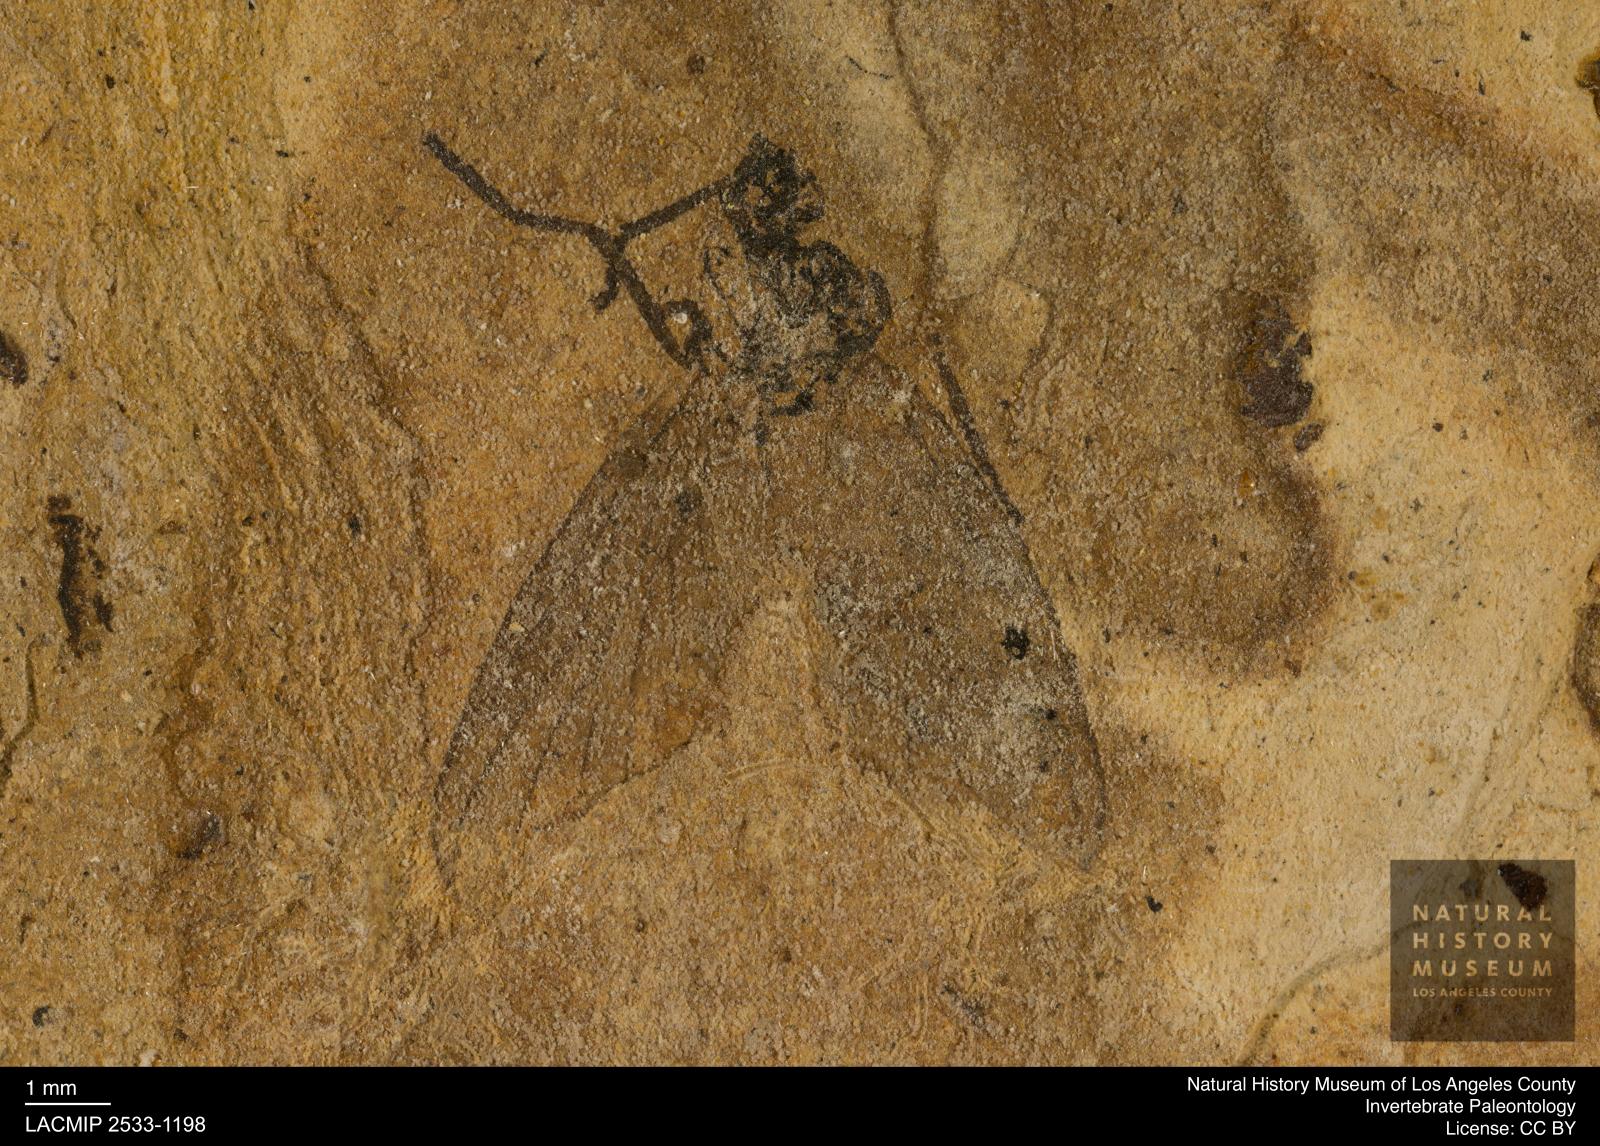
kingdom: Animalia
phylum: Arthropoda
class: Insecta
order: Diptera
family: Bibionidae
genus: Plecia
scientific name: Plecia grossa
